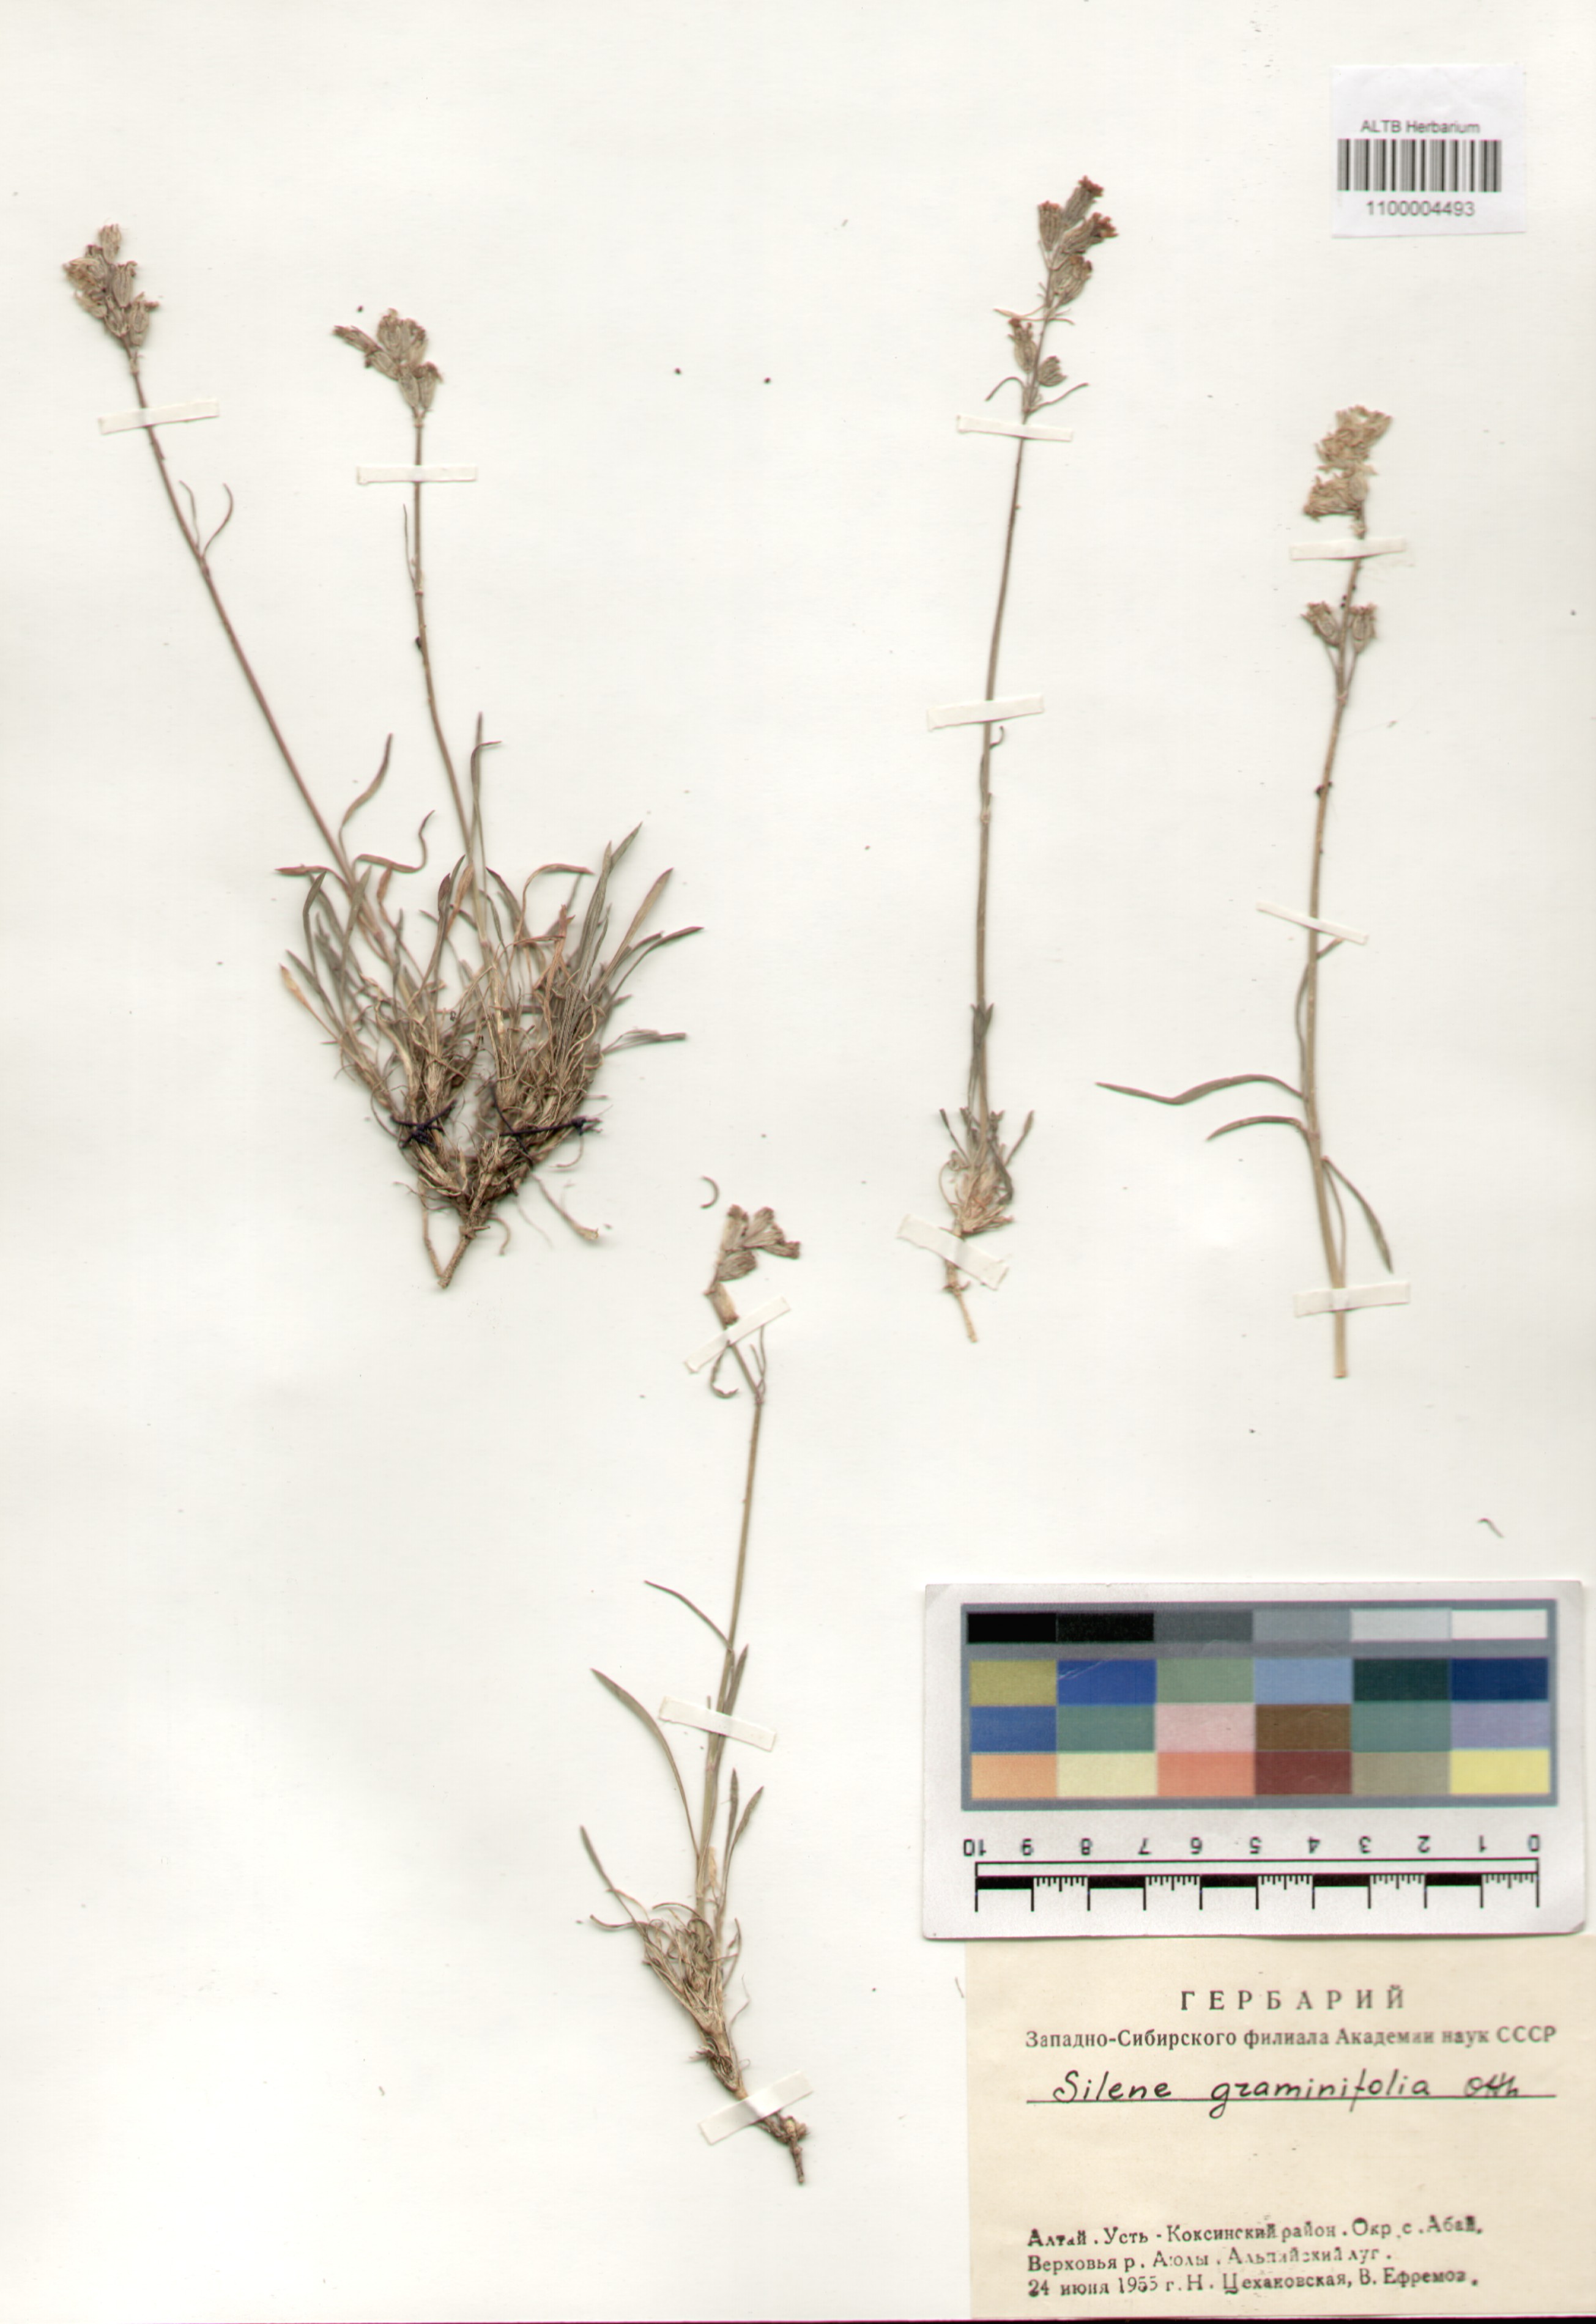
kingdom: Plantae
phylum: Tracheophyta
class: Magnoliopsida
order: Caryophyllales
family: Caryophyllaceae
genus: Silene
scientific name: Silene graminifolia
